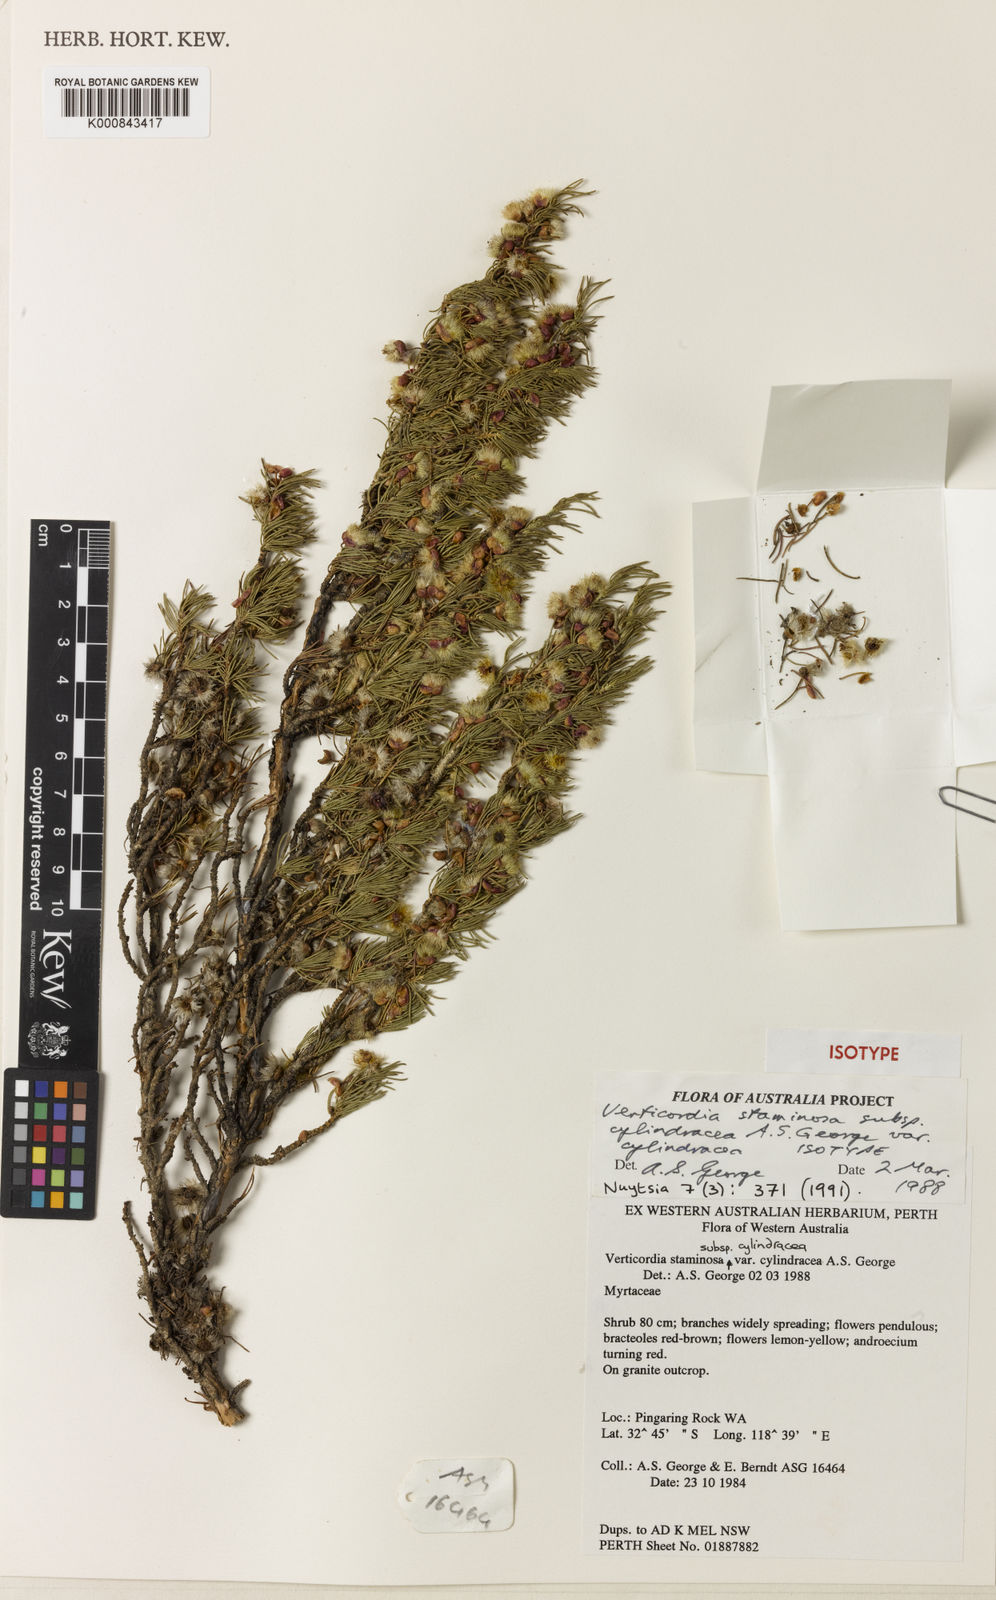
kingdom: Plantae
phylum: Tracheophyta
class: Magnoliopsida
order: Myrtales
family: Myrtaceae
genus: Verticordia
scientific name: Verticordia staminosa
